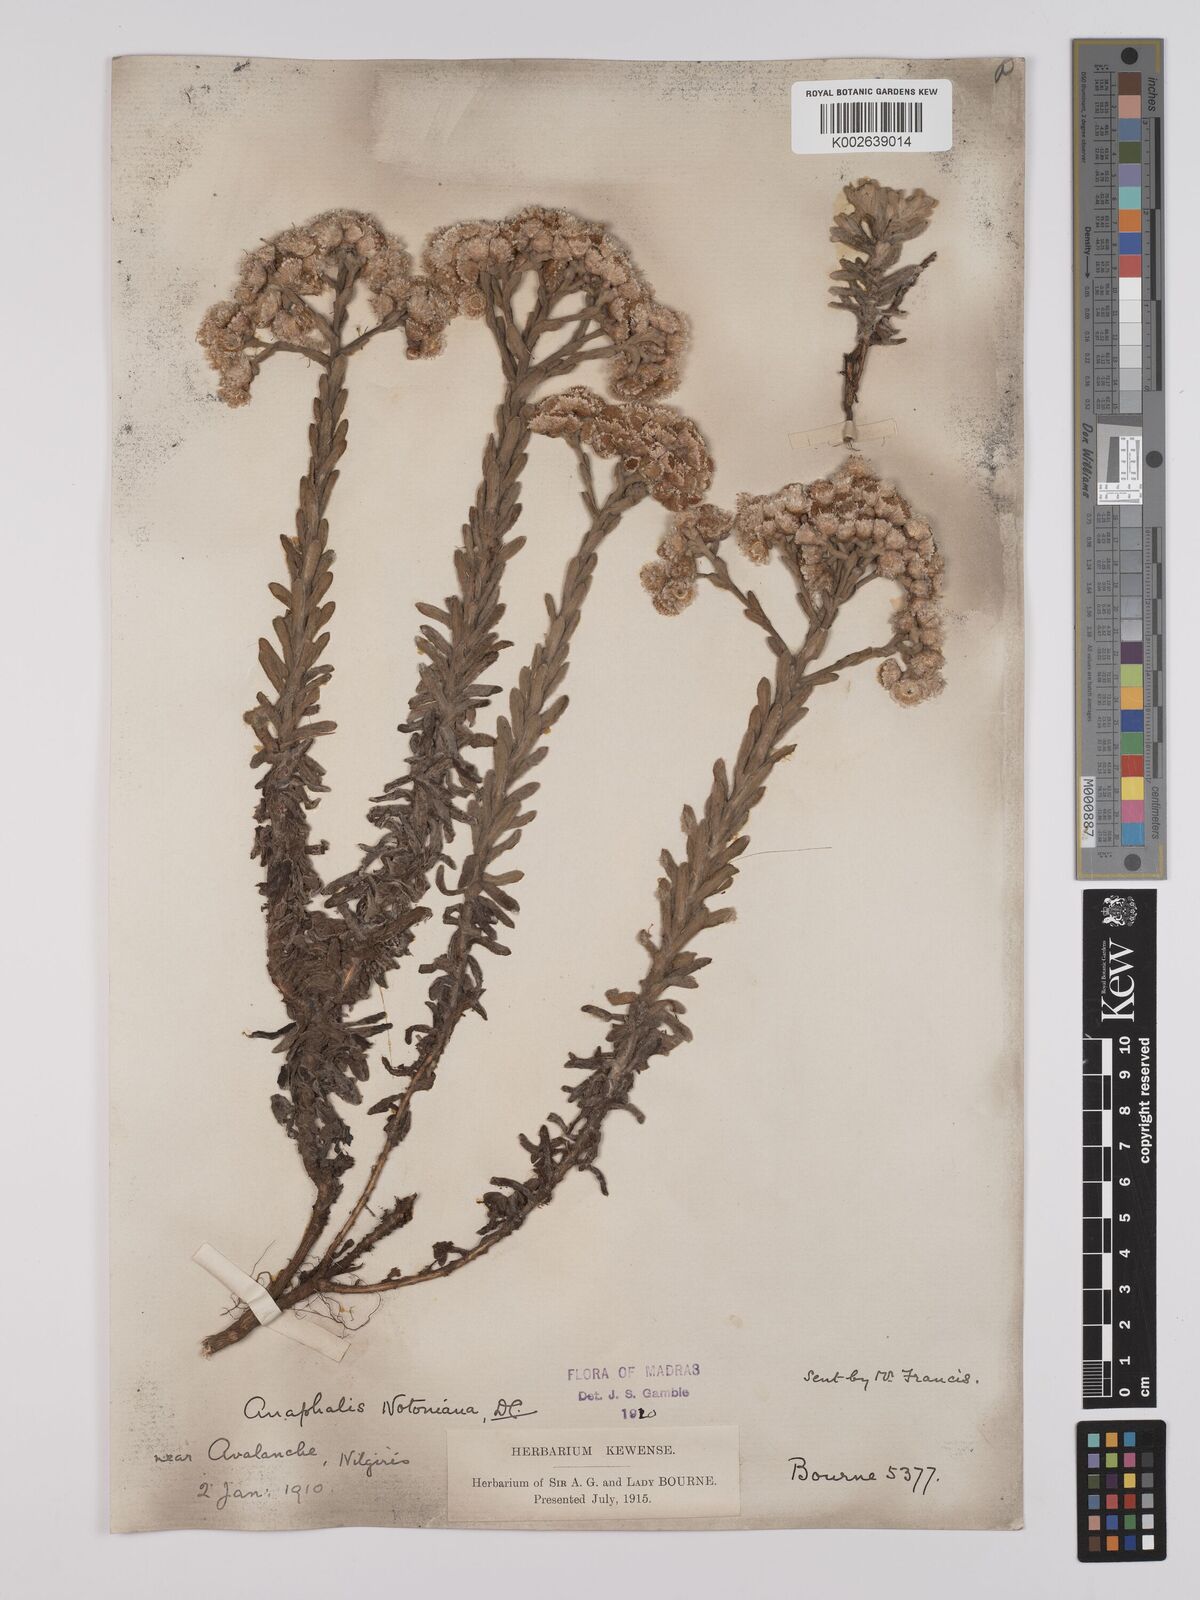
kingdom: Plantae
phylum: Tracheophyta
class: Magnoliopsida
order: Asterales
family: Asteraceae
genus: Anaphalis
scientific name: Anaphalis notoniana
